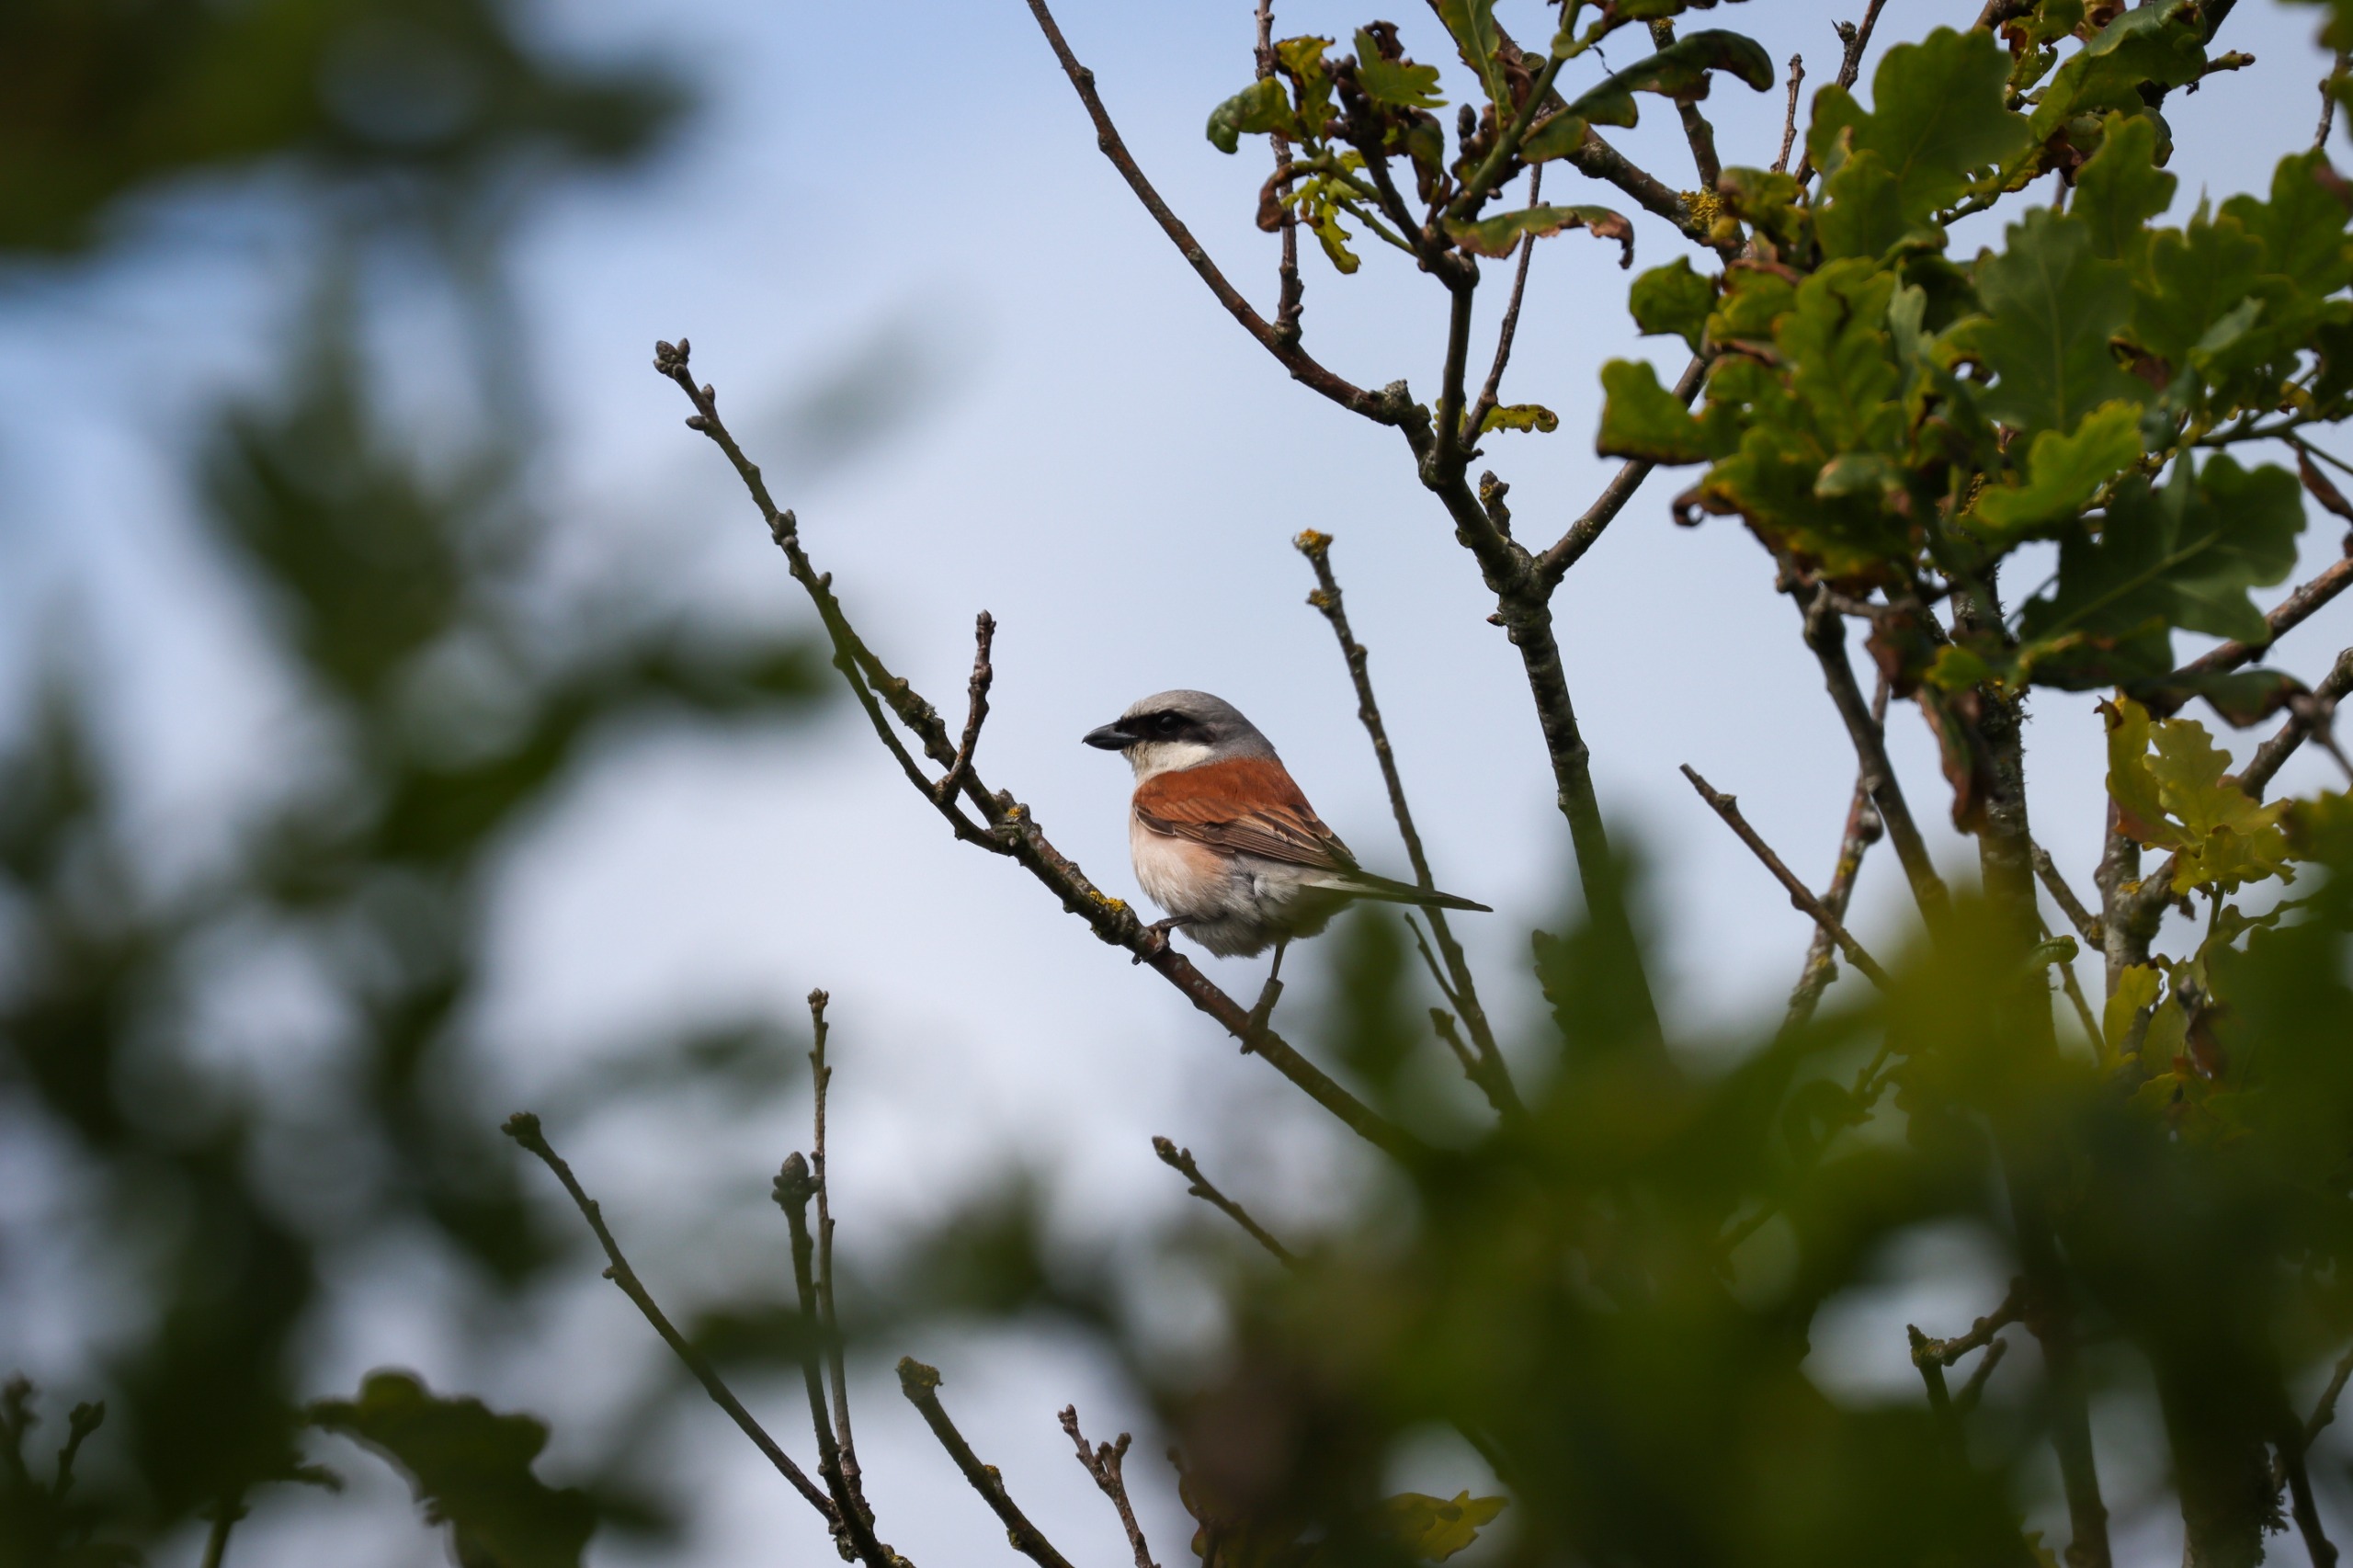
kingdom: Animalia
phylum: Chordata
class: Aves
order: Passeriformes
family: Laniidae
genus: Lanius
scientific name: Lanius collurio
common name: Rødrygget tornskade
